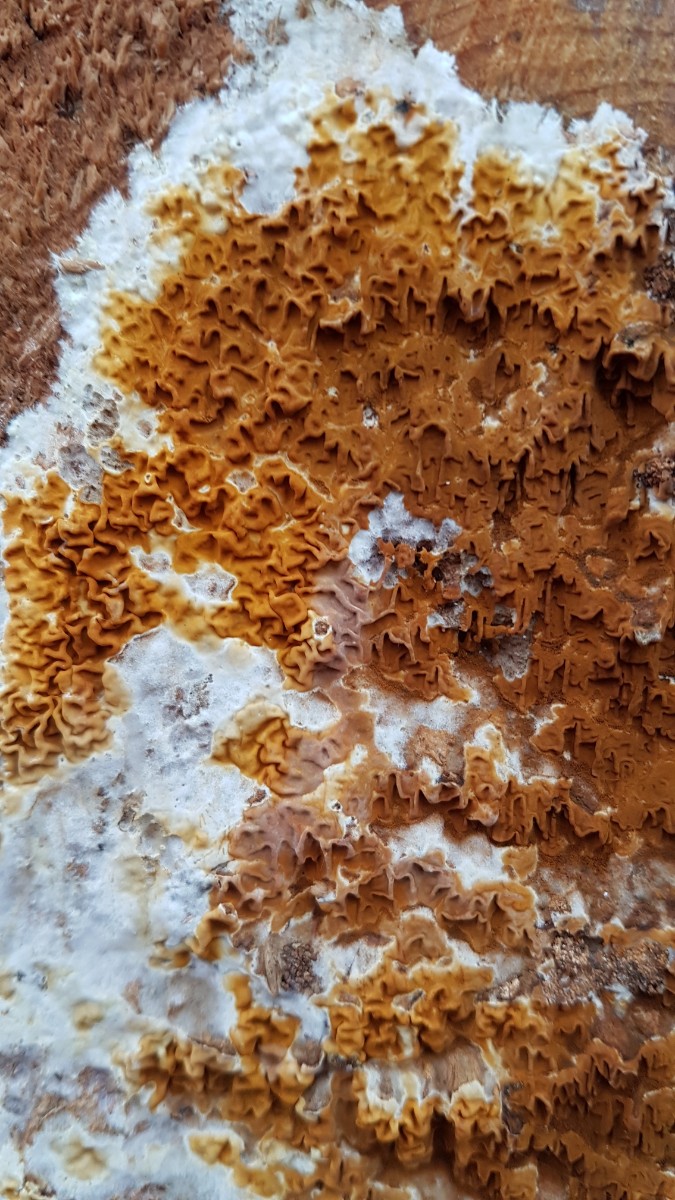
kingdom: Fungi
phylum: Basidiomycota
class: Agaricomycetes
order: Boletales
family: Serpulaceae
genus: Serpula
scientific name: Serpula himantioides
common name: tyndkødet hussvamp
